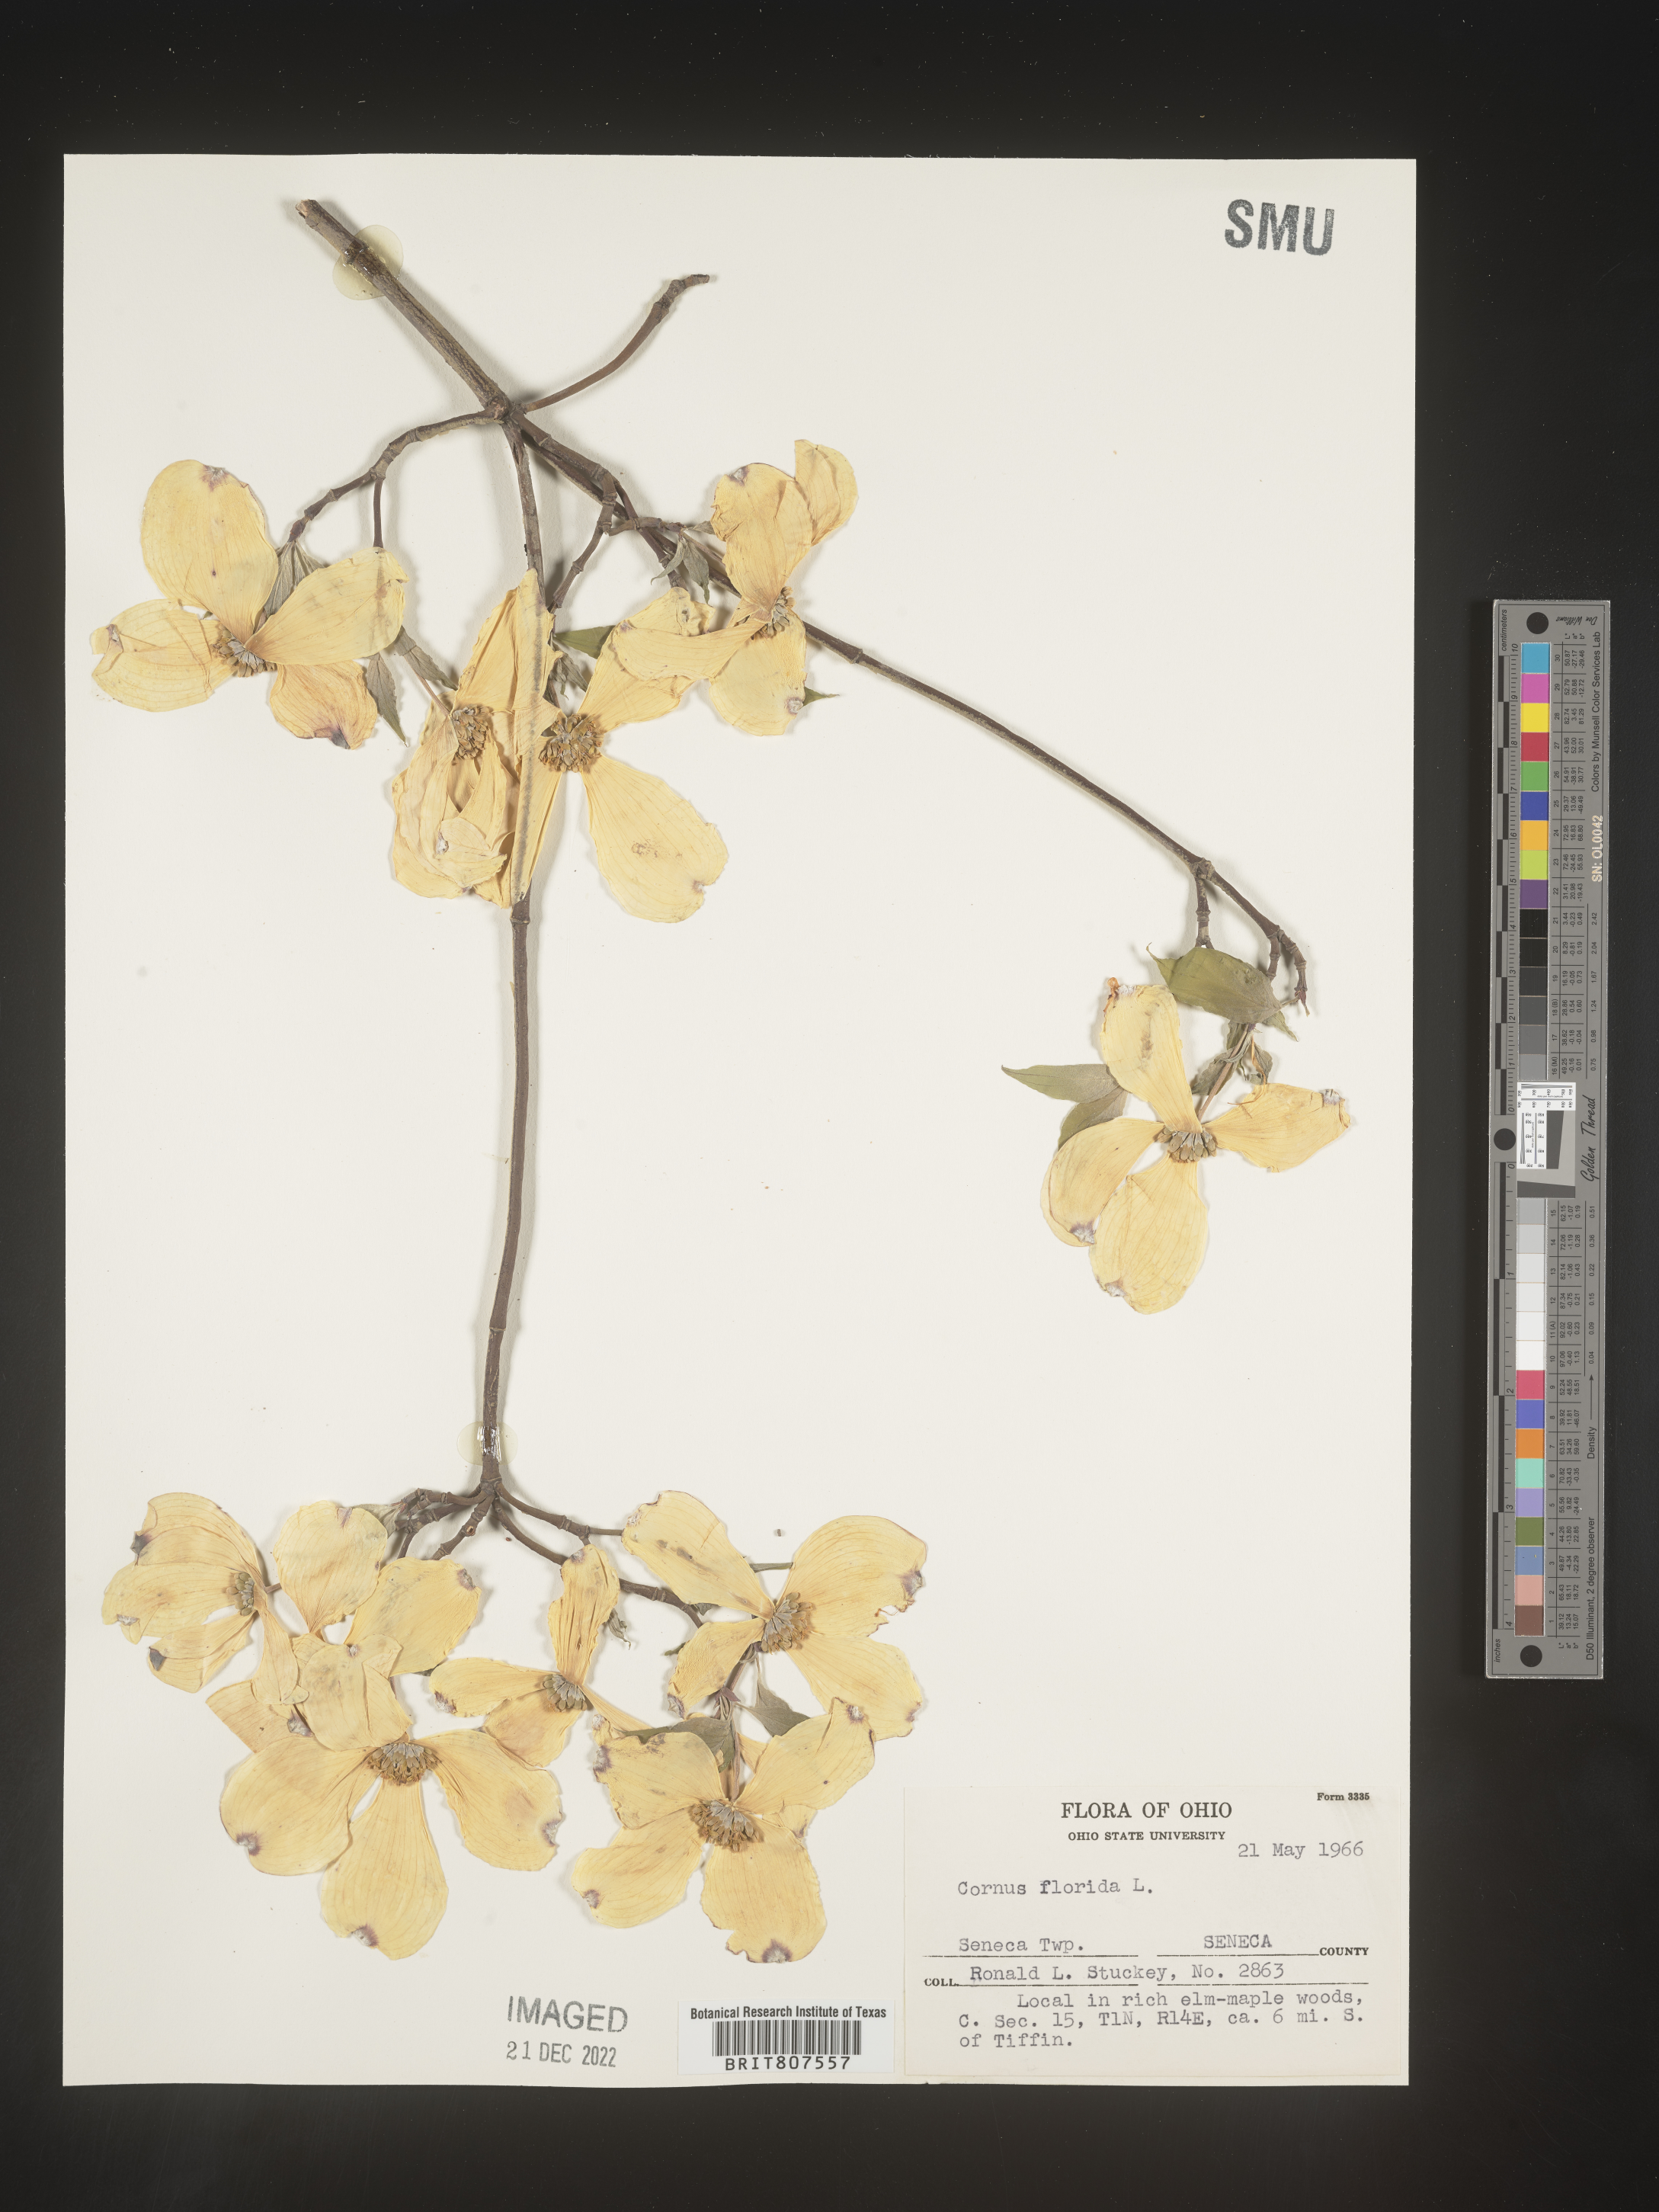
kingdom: Plantae
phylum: Tracheophyta
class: Magnoliopsida
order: Cornales
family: Cornaceae
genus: Cornus
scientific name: Cornus florida
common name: Flowering dogwood
